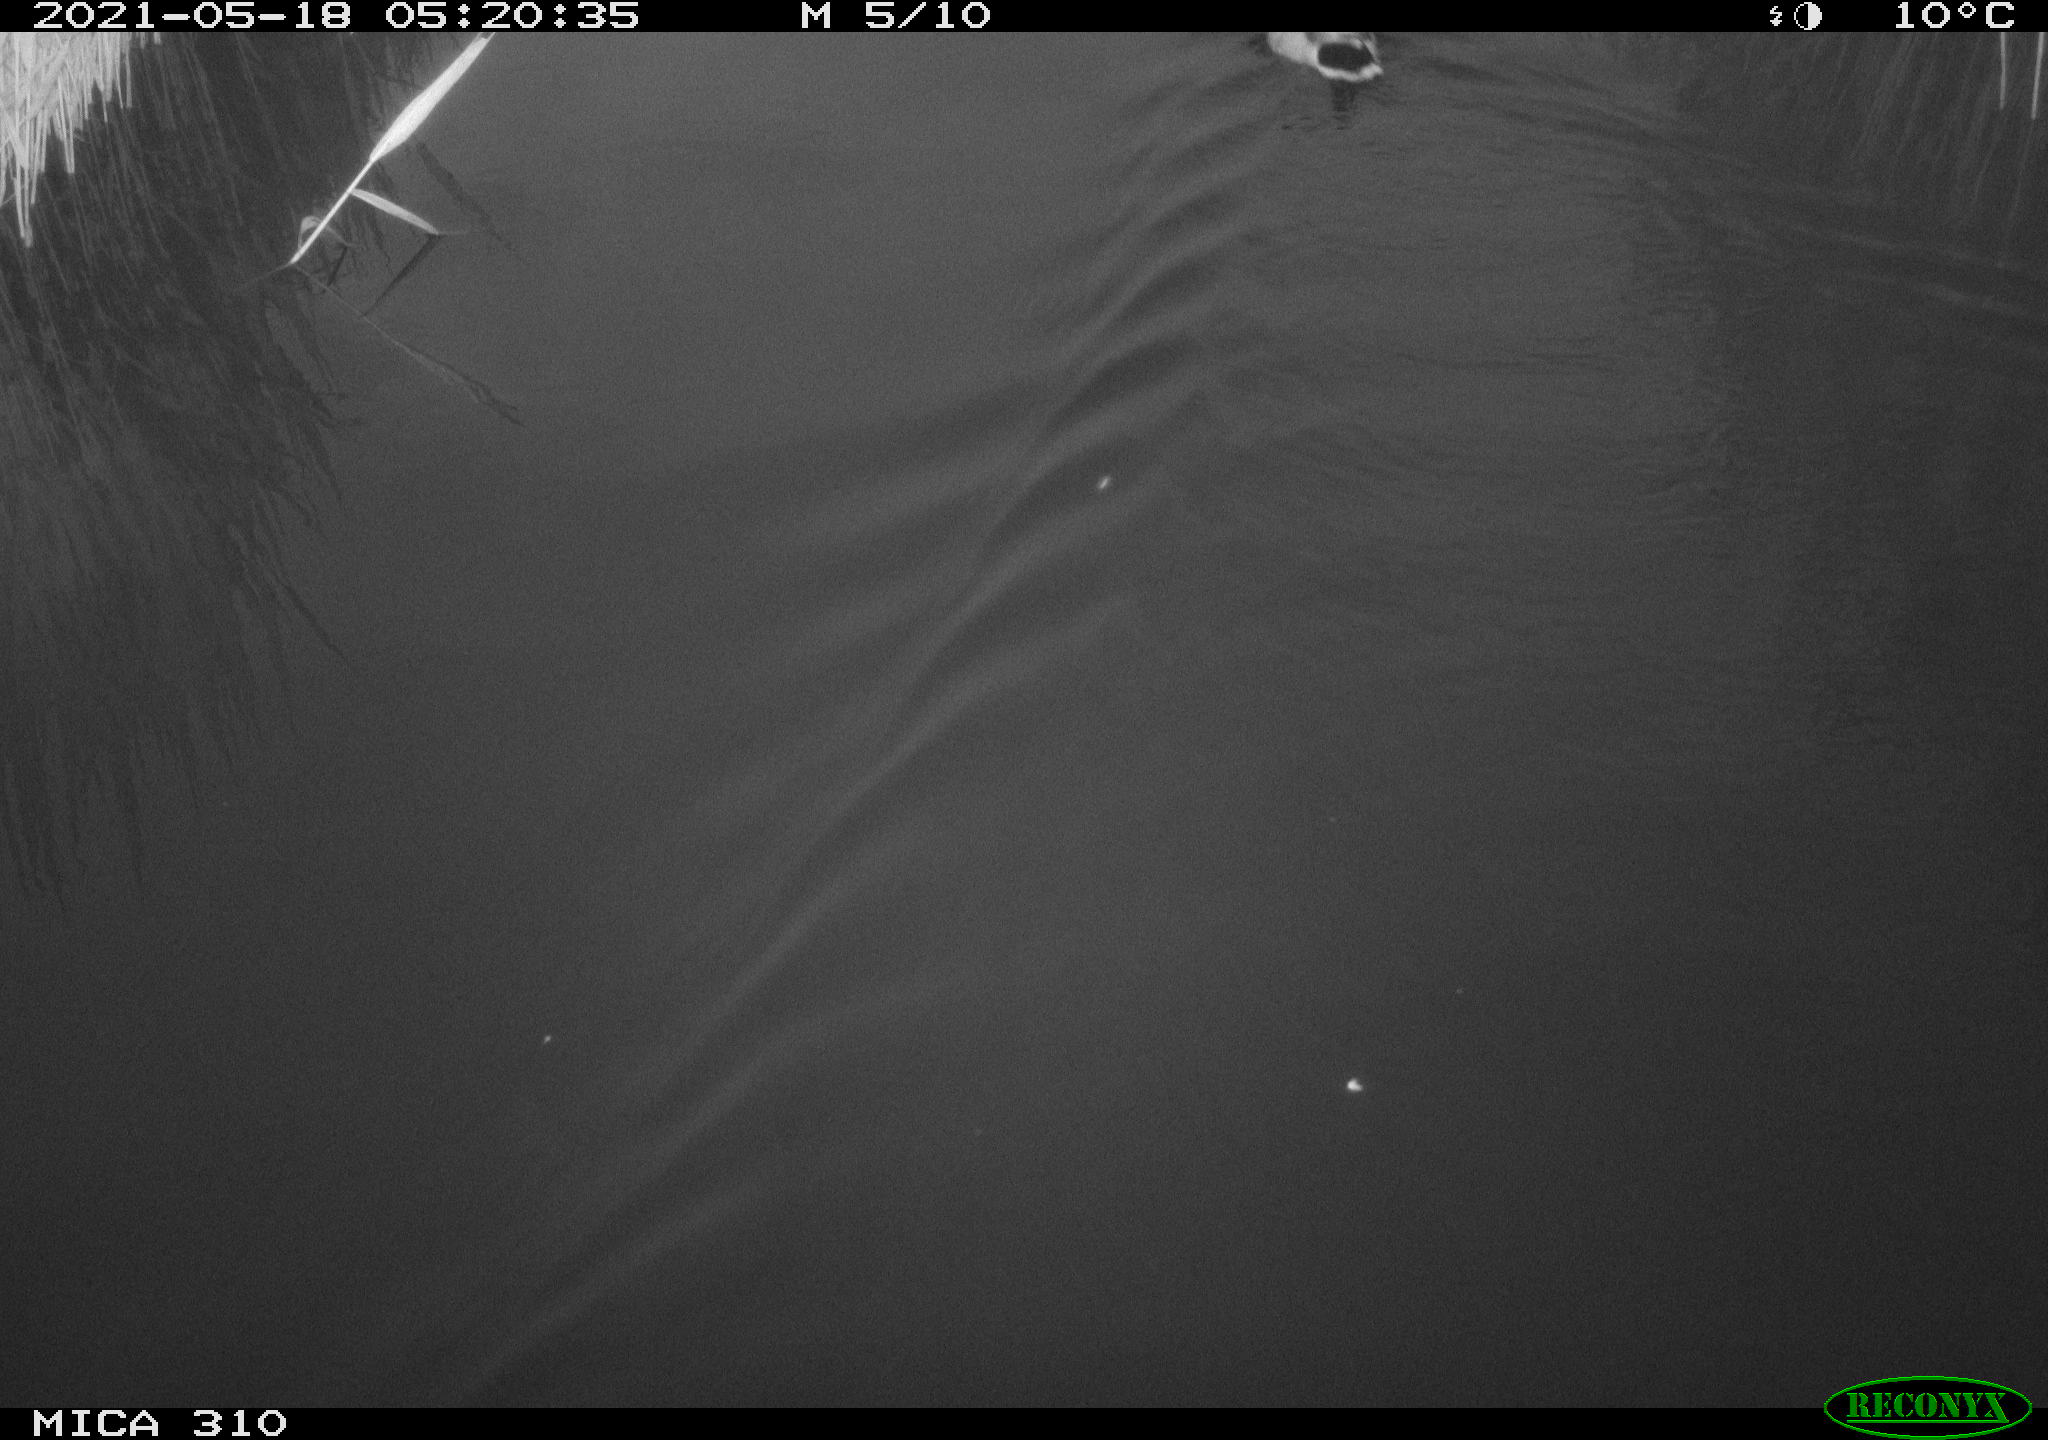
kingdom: Animalia
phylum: Chordata
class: Aves
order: Anseriformes
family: Anatidae
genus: Anas
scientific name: Anas platyrhynchos
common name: Mallard
